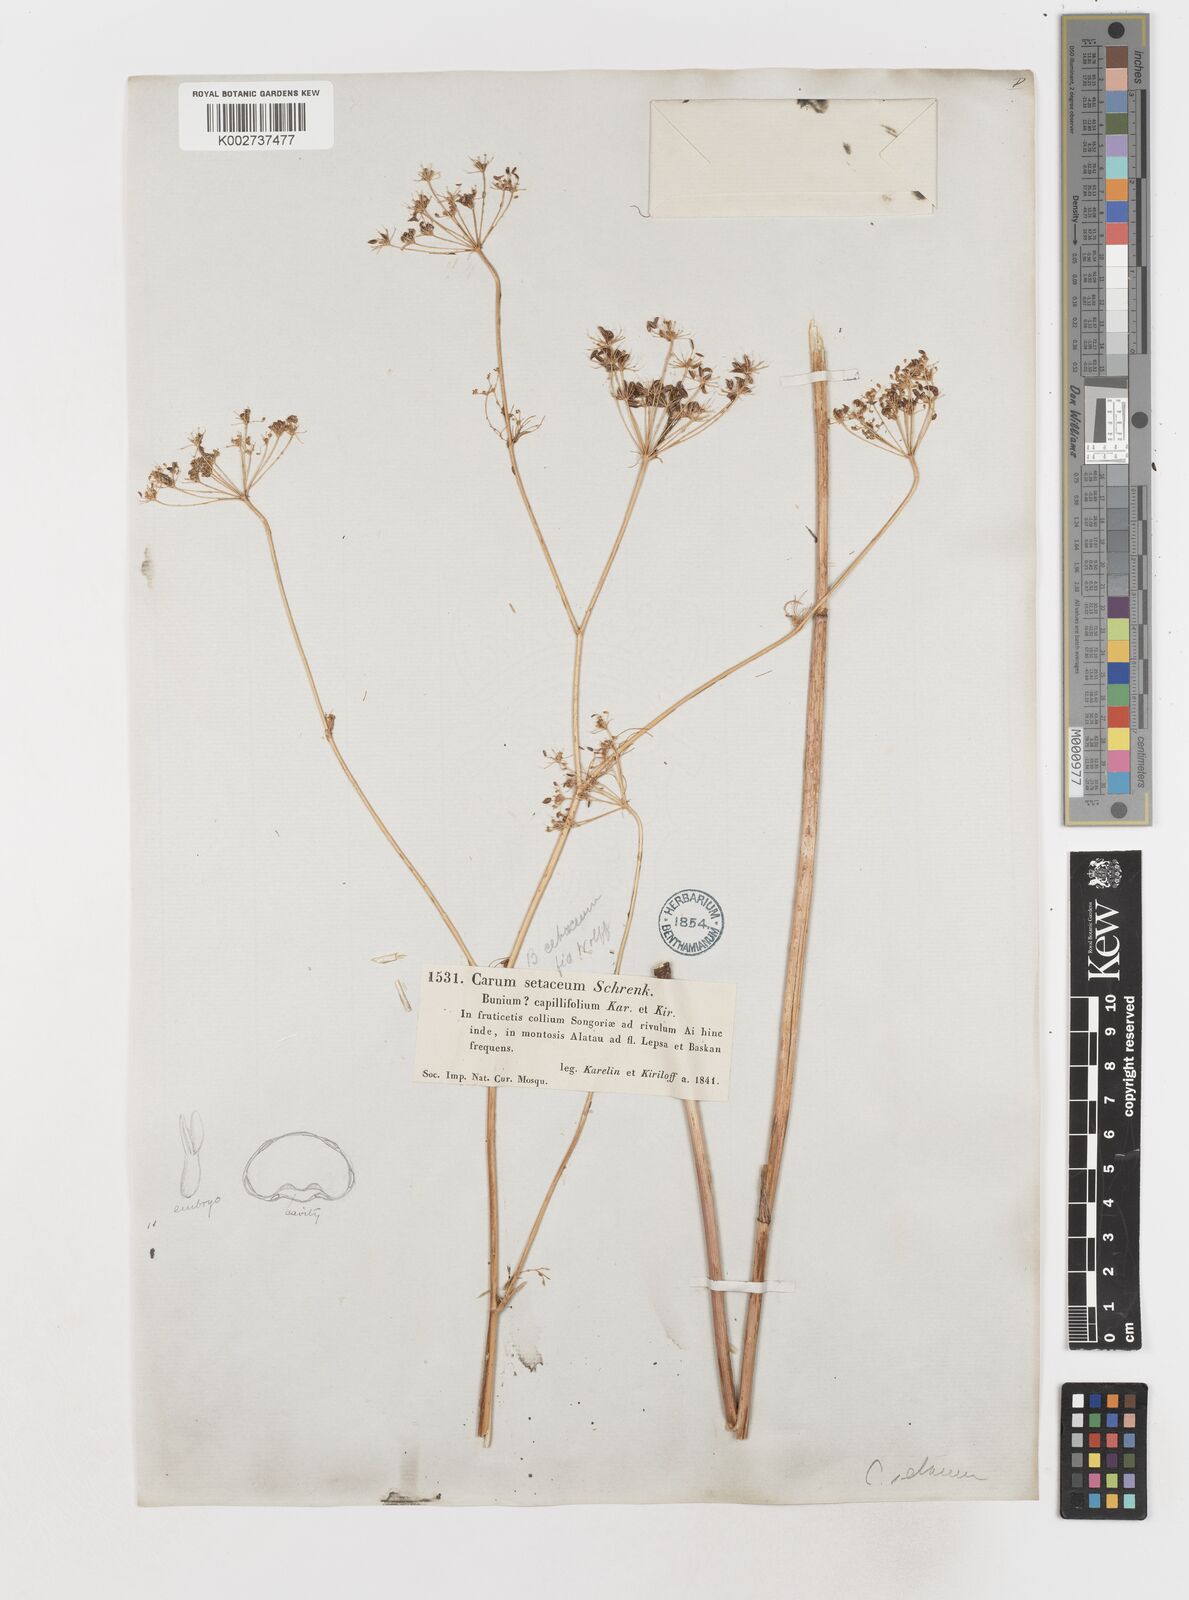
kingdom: Plantae
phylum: Tracheophyta
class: Magnoliopsida
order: Apiales
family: Apiaceae
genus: Scaligeria
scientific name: Scaligeria napiformis
